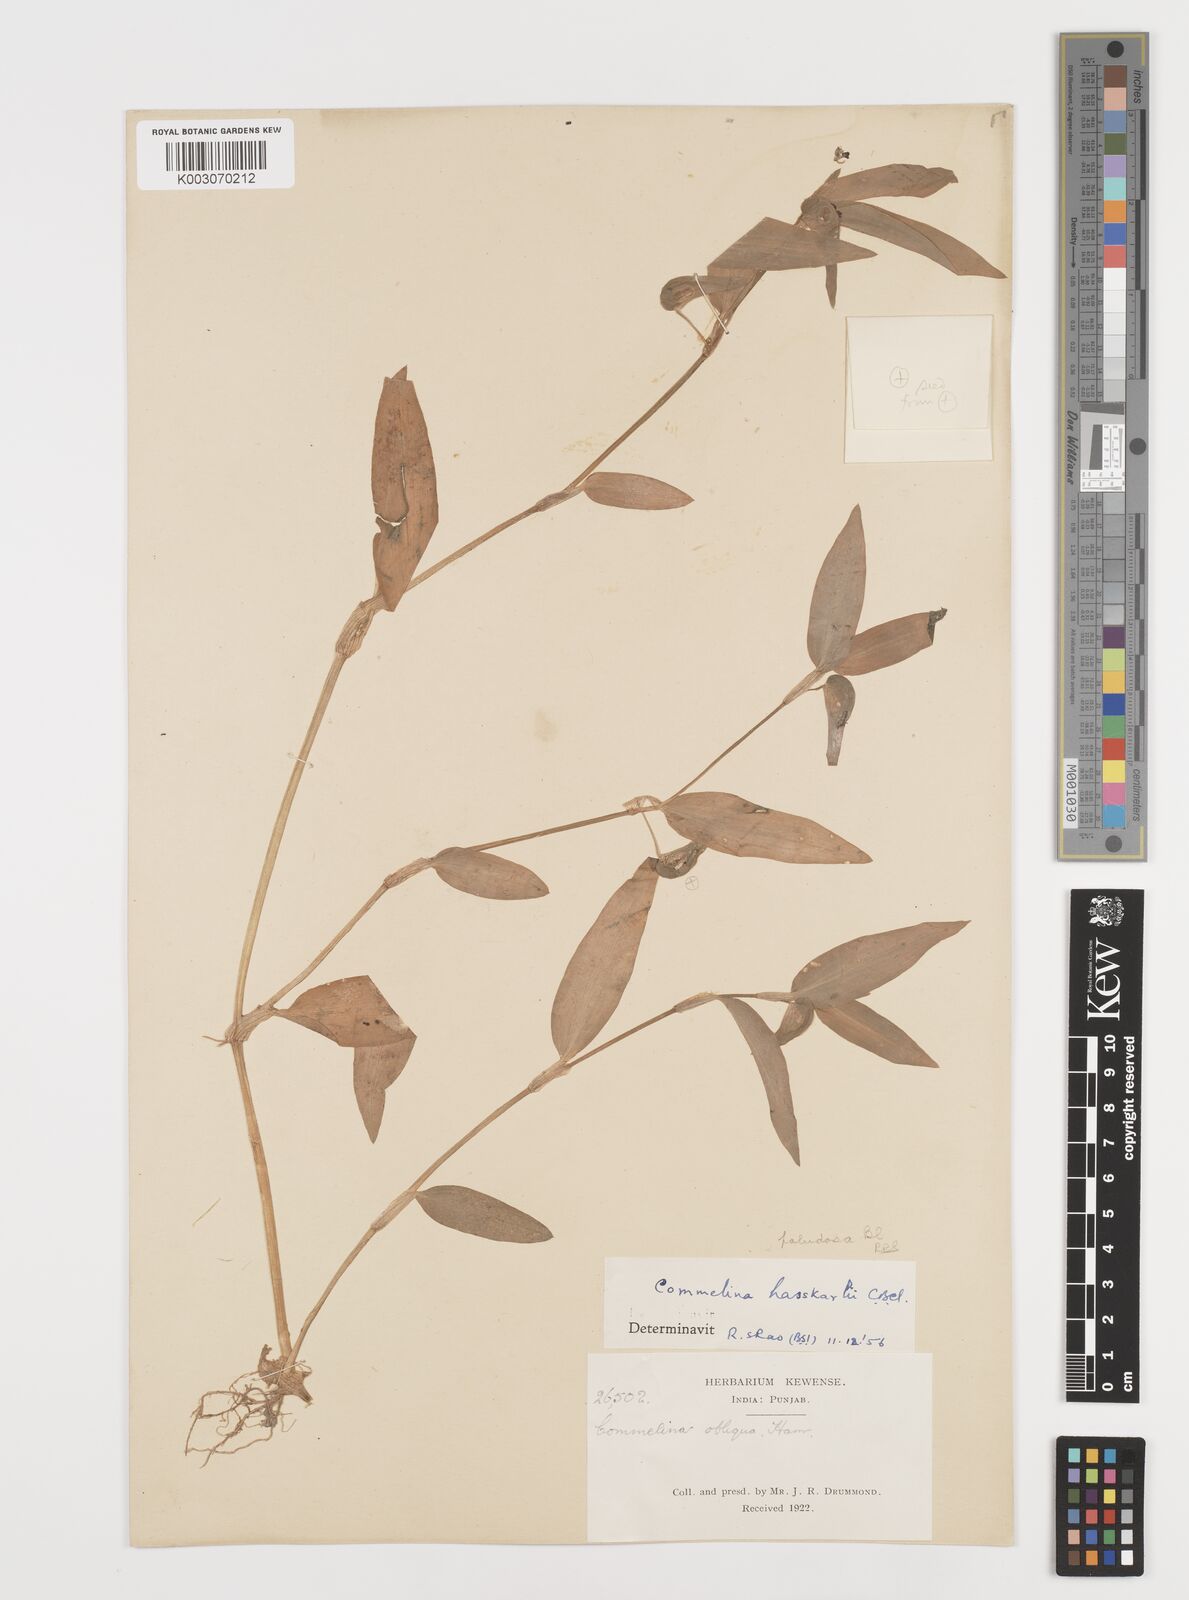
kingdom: Plantae
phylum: Tracheophyta
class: Liliopsida
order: Commelinales
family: Commelinaceae
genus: Commelina
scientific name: Commelina paludosa
